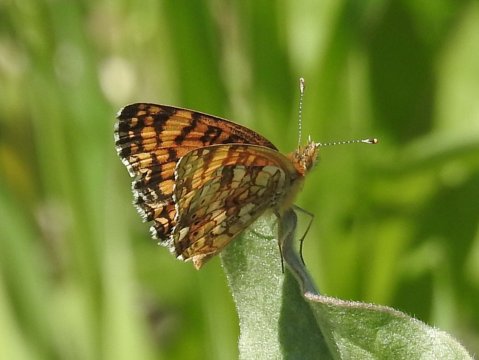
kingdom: Animalia
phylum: Arthropoda
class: Insecta
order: Lepidoptera
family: Nymphalidae
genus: Eresia
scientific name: Eresia aveyrona
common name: Mylitta Crescent
